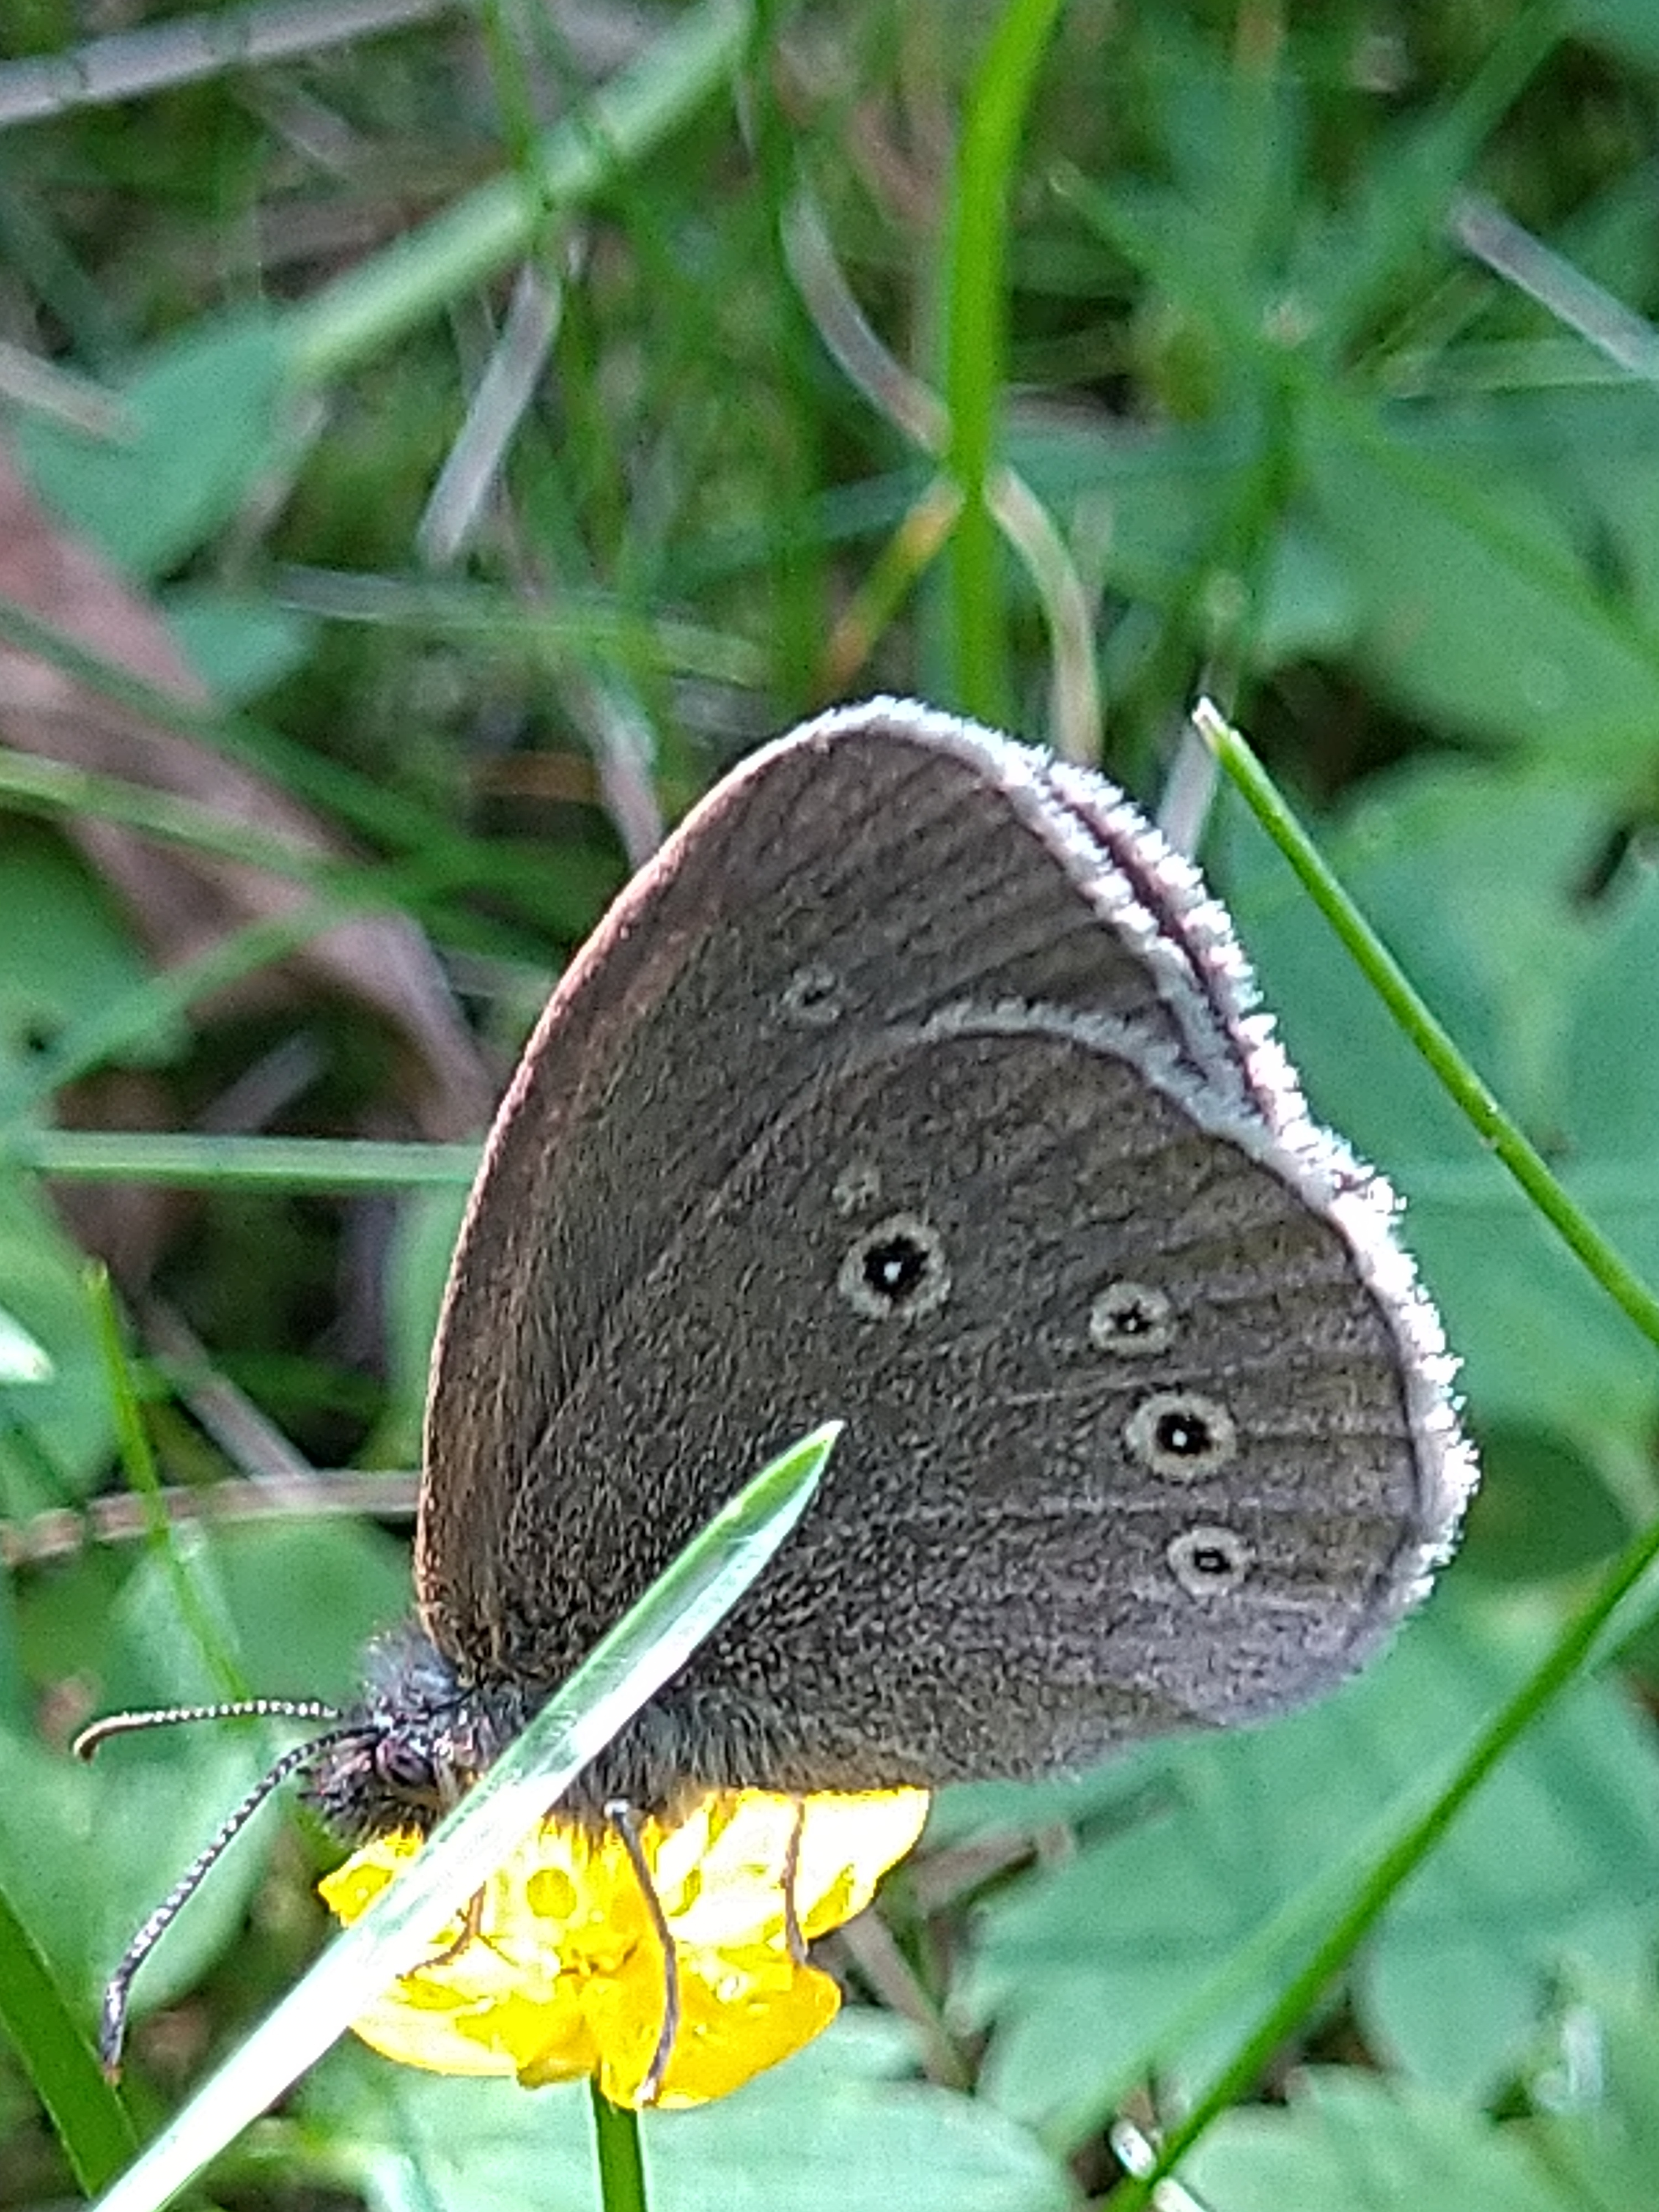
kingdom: Animalia
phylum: Arthropoda
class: Insecta
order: Lepidoptera
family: Nymphalidae
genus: Aphantopus
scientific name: Aphantopus hyperantus
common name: Ringlet
